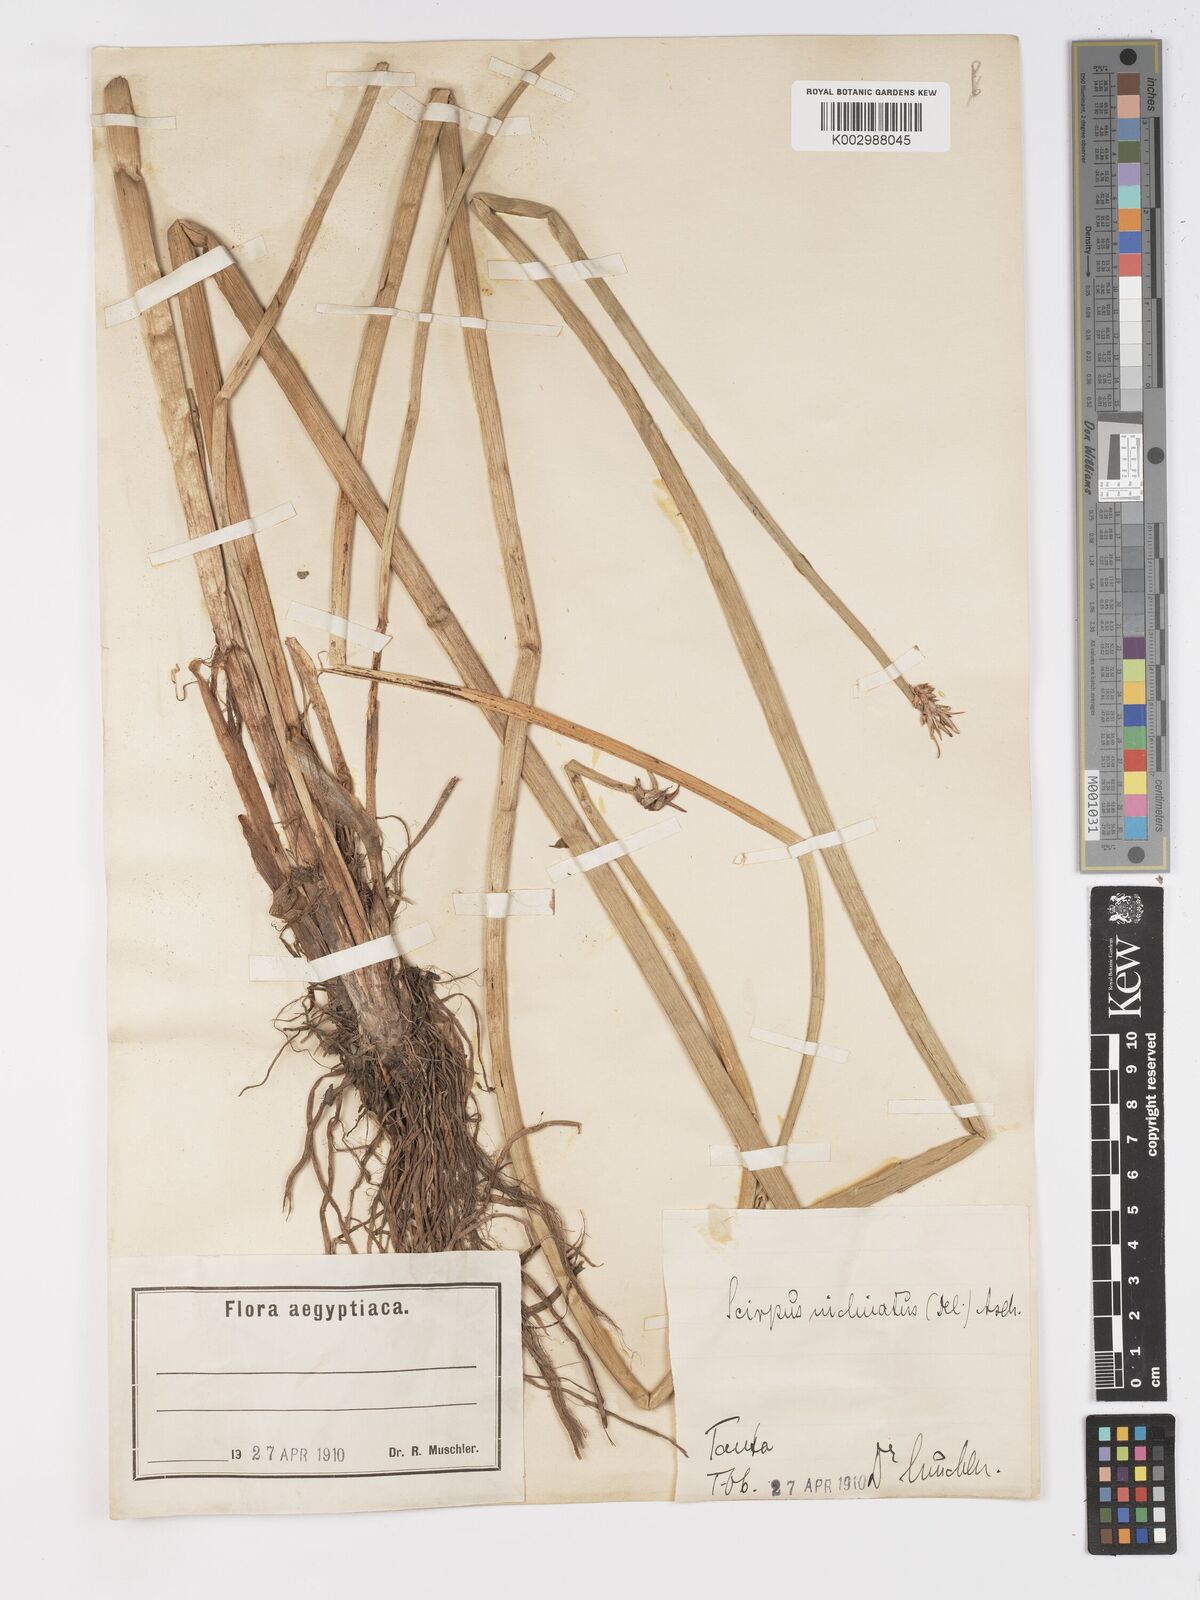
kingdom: Plantae
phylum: Tracheophyta
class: Liliopsida
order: Poales
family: Cyperaceae
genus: Schoenoplectiella
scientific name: Schoenoplectiella corymbosa
